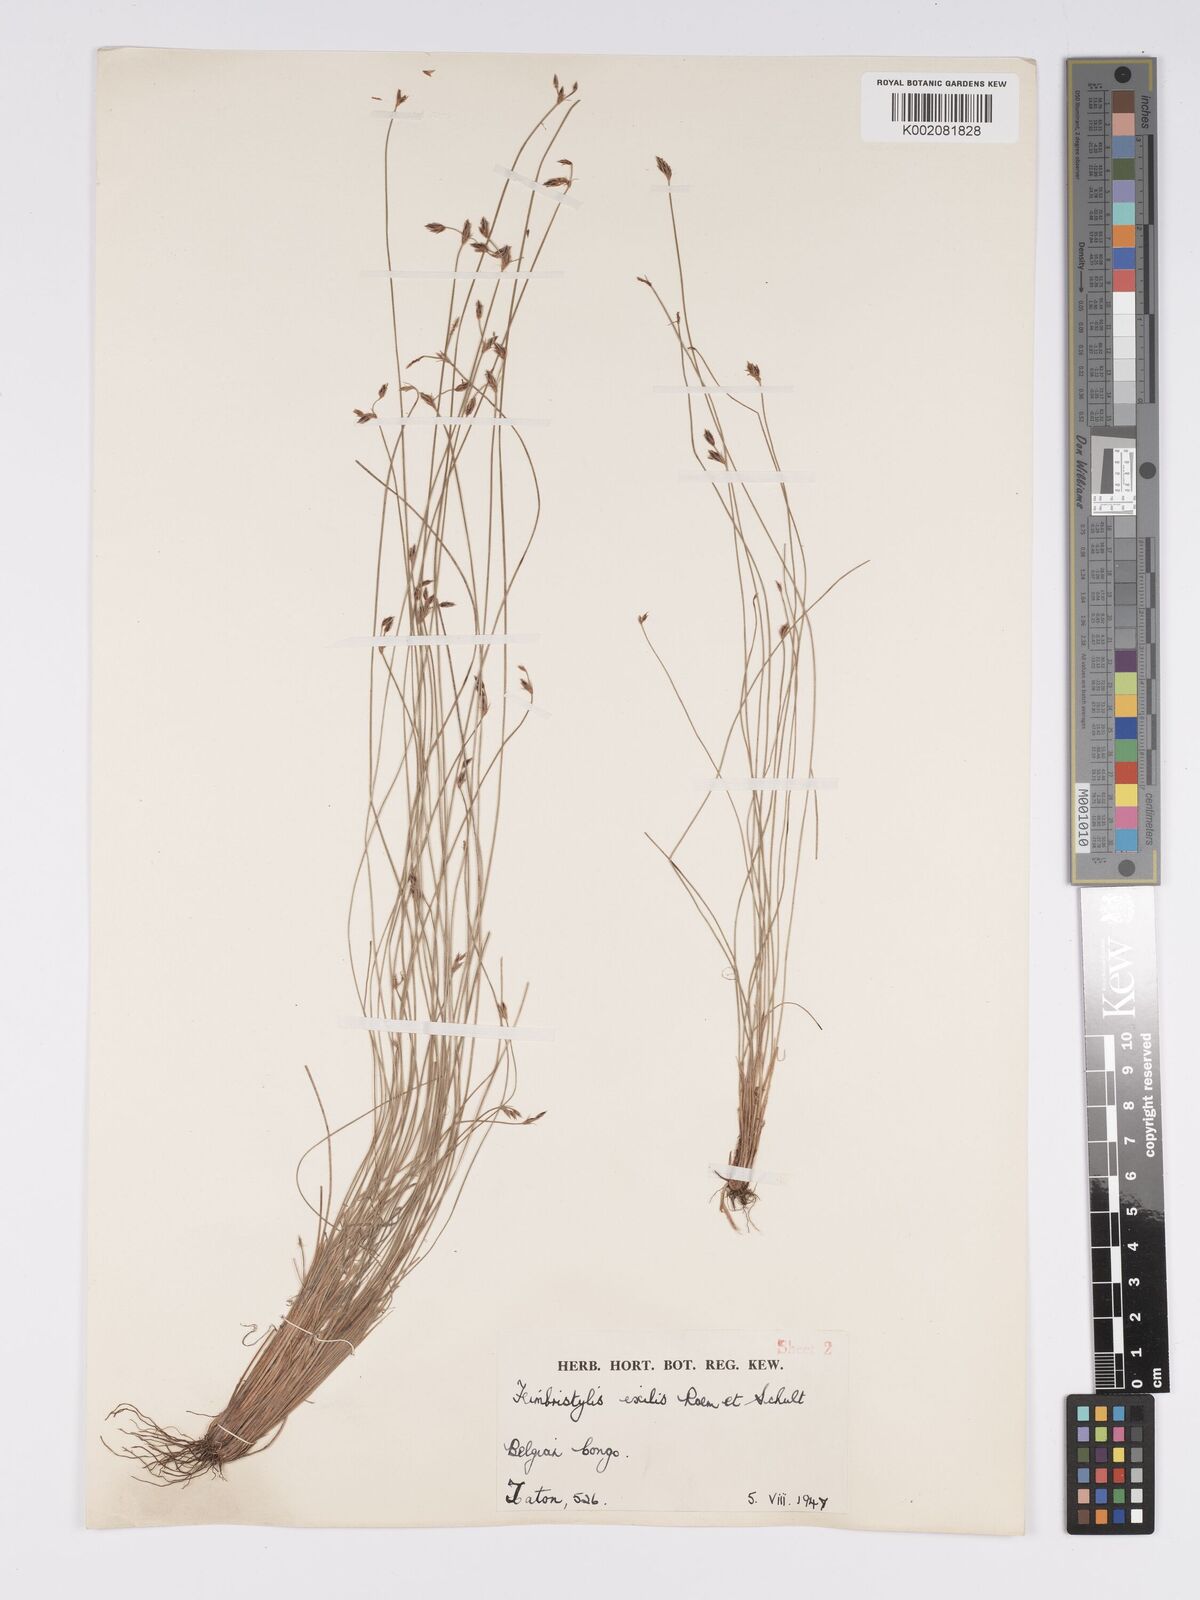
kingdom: Plantae
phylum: Tracheophyta
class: Liliopsida
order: Poales
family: Cyperaceae
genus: Bulbostylis
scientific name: Bulbostylis hispidula
